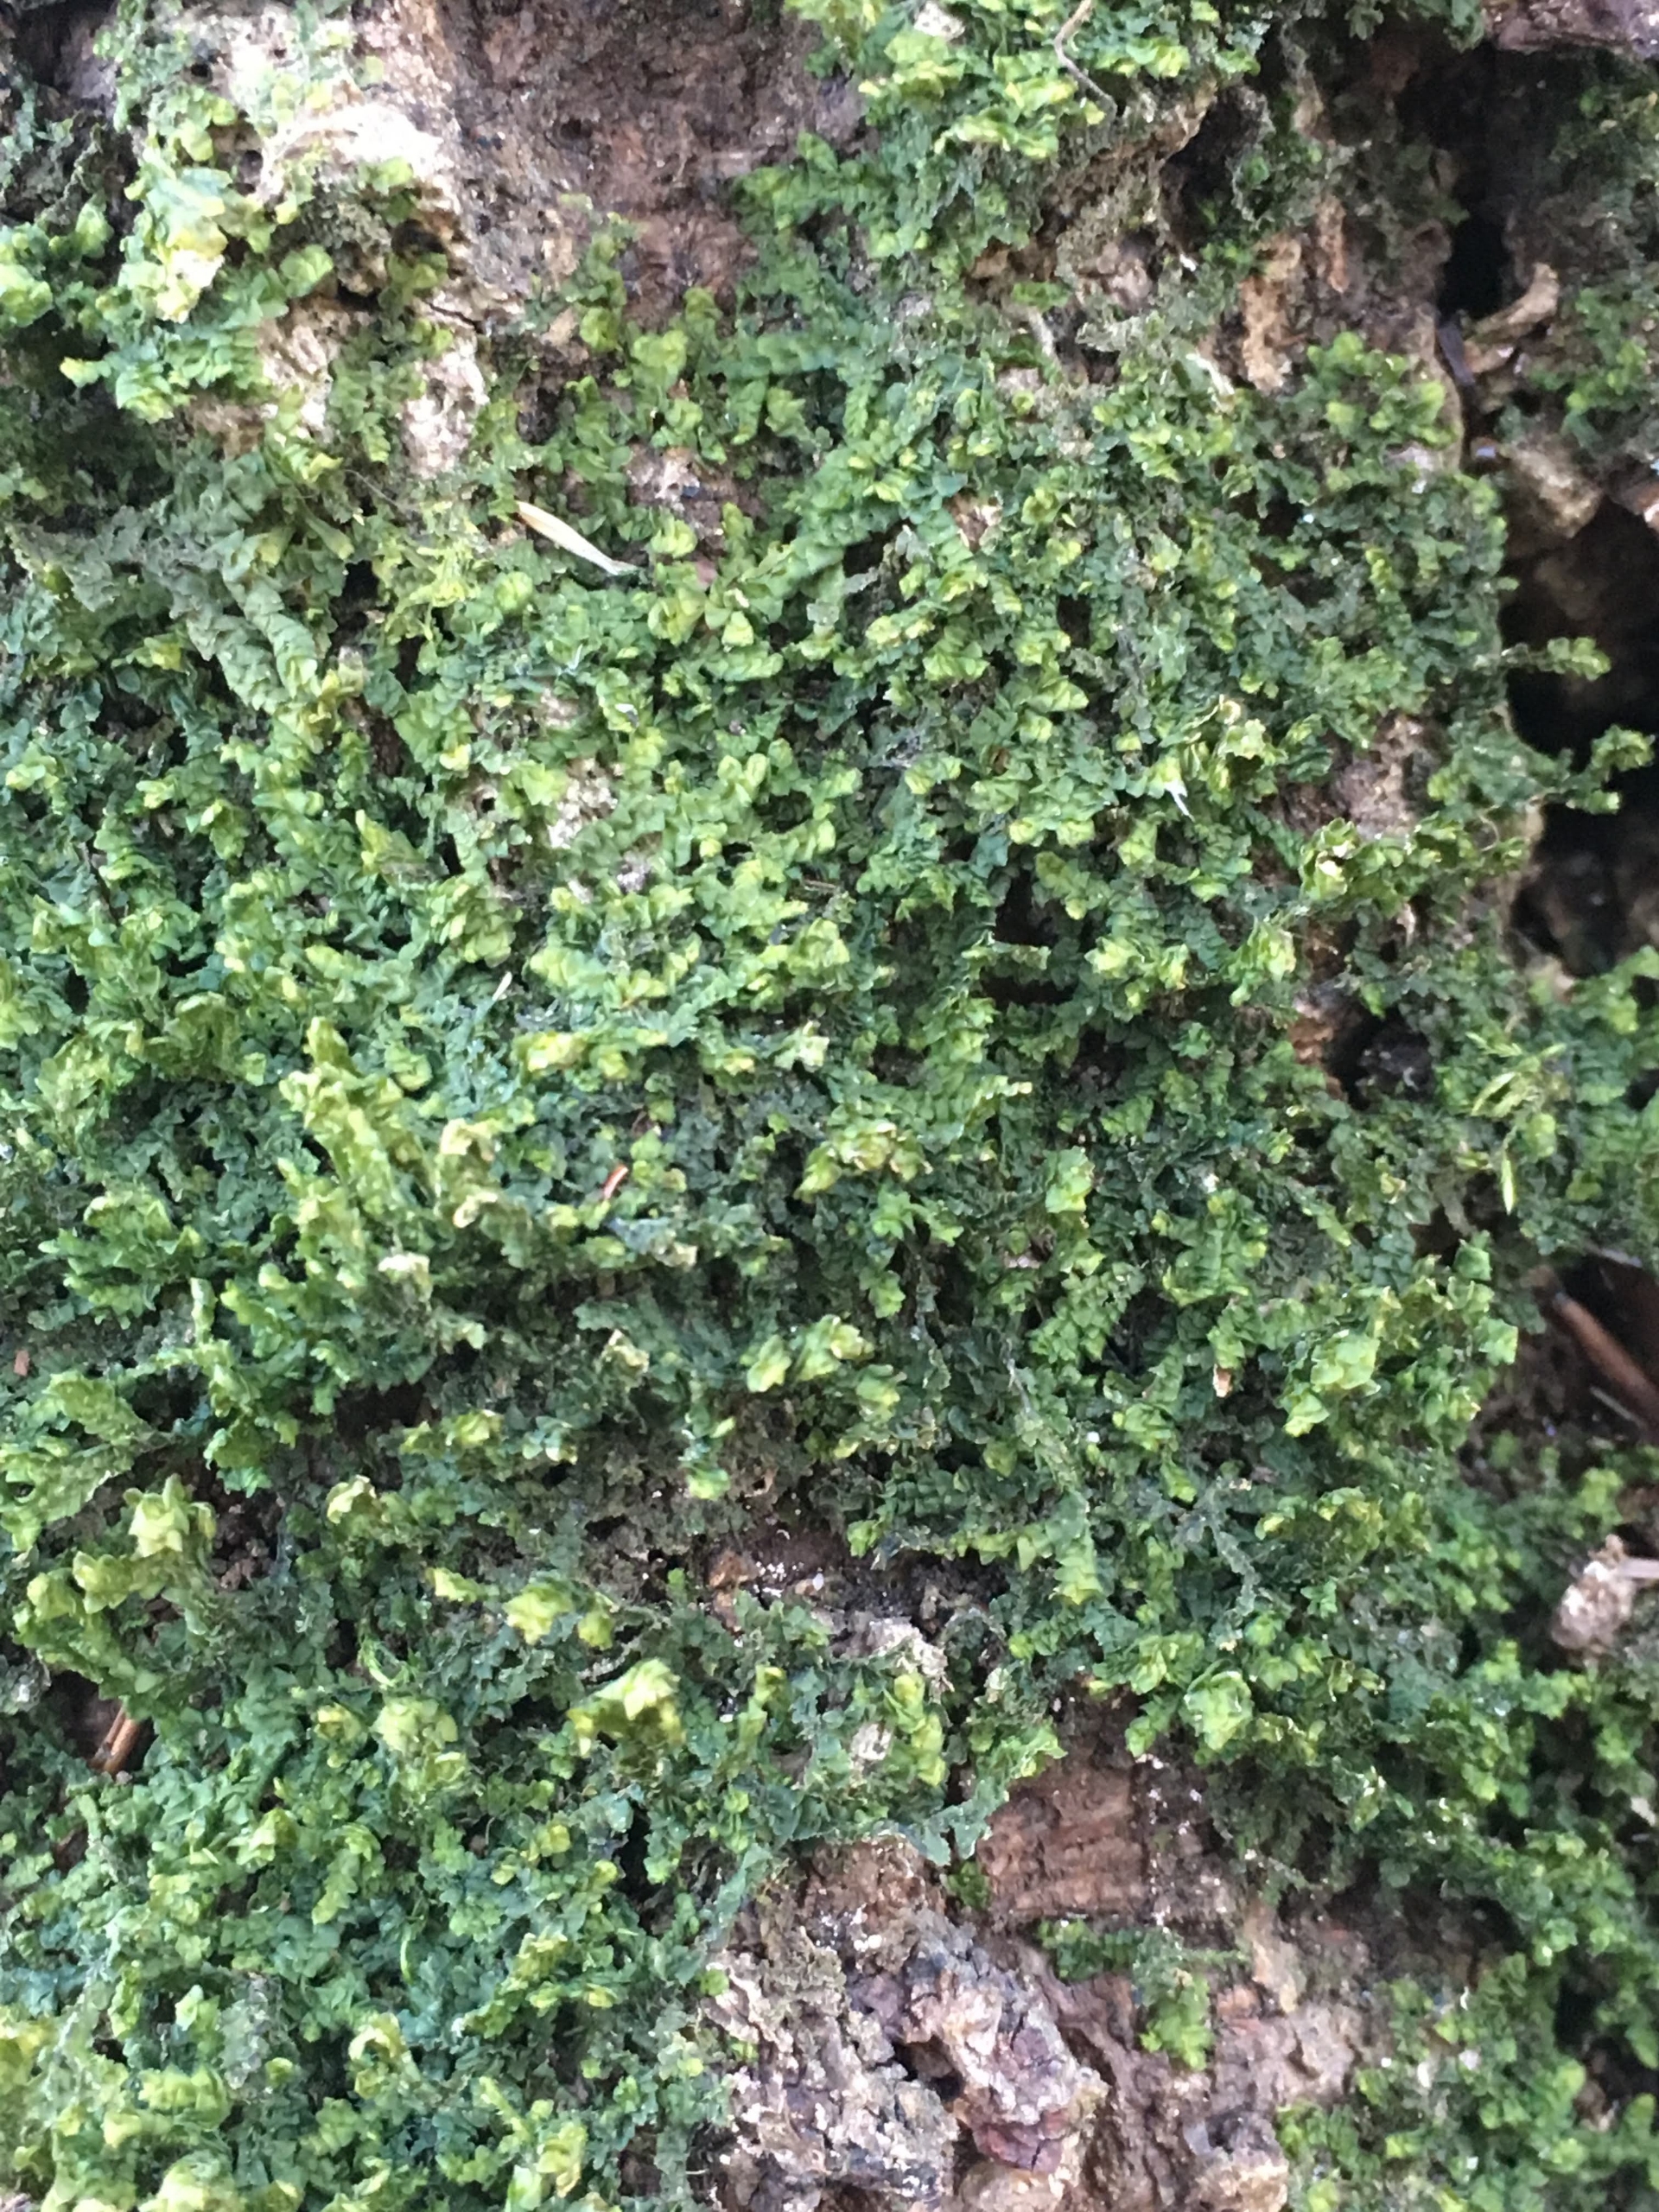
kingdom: Plantae
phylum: Marchantiophyta
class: Jungermanniopsida
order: Porellales
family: Porellaceae
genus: Porella
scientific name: Porella platyphylla
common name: Almindelig skælryg
